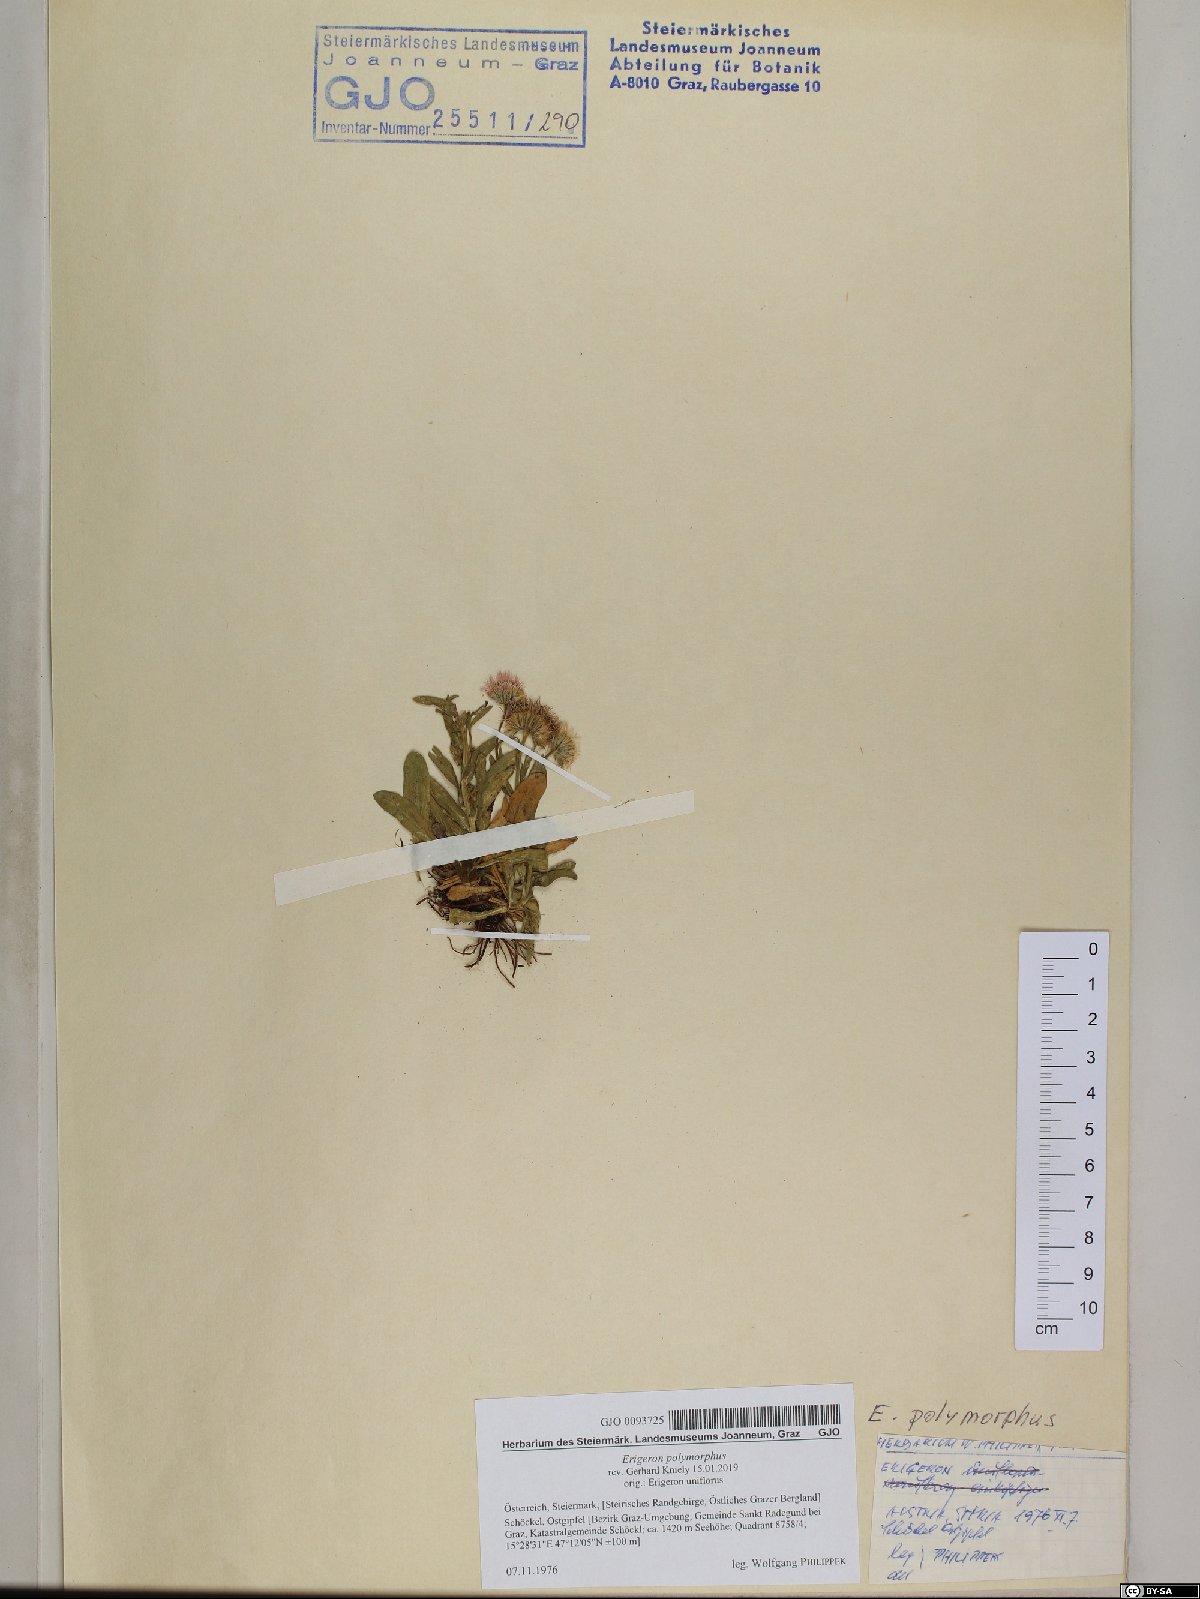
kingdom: Plantae
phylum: Tracheophyta
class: Magnoliopsida
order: Asterales
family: Asteraceae
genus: Erigeron
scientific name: Erigeron alpinus
